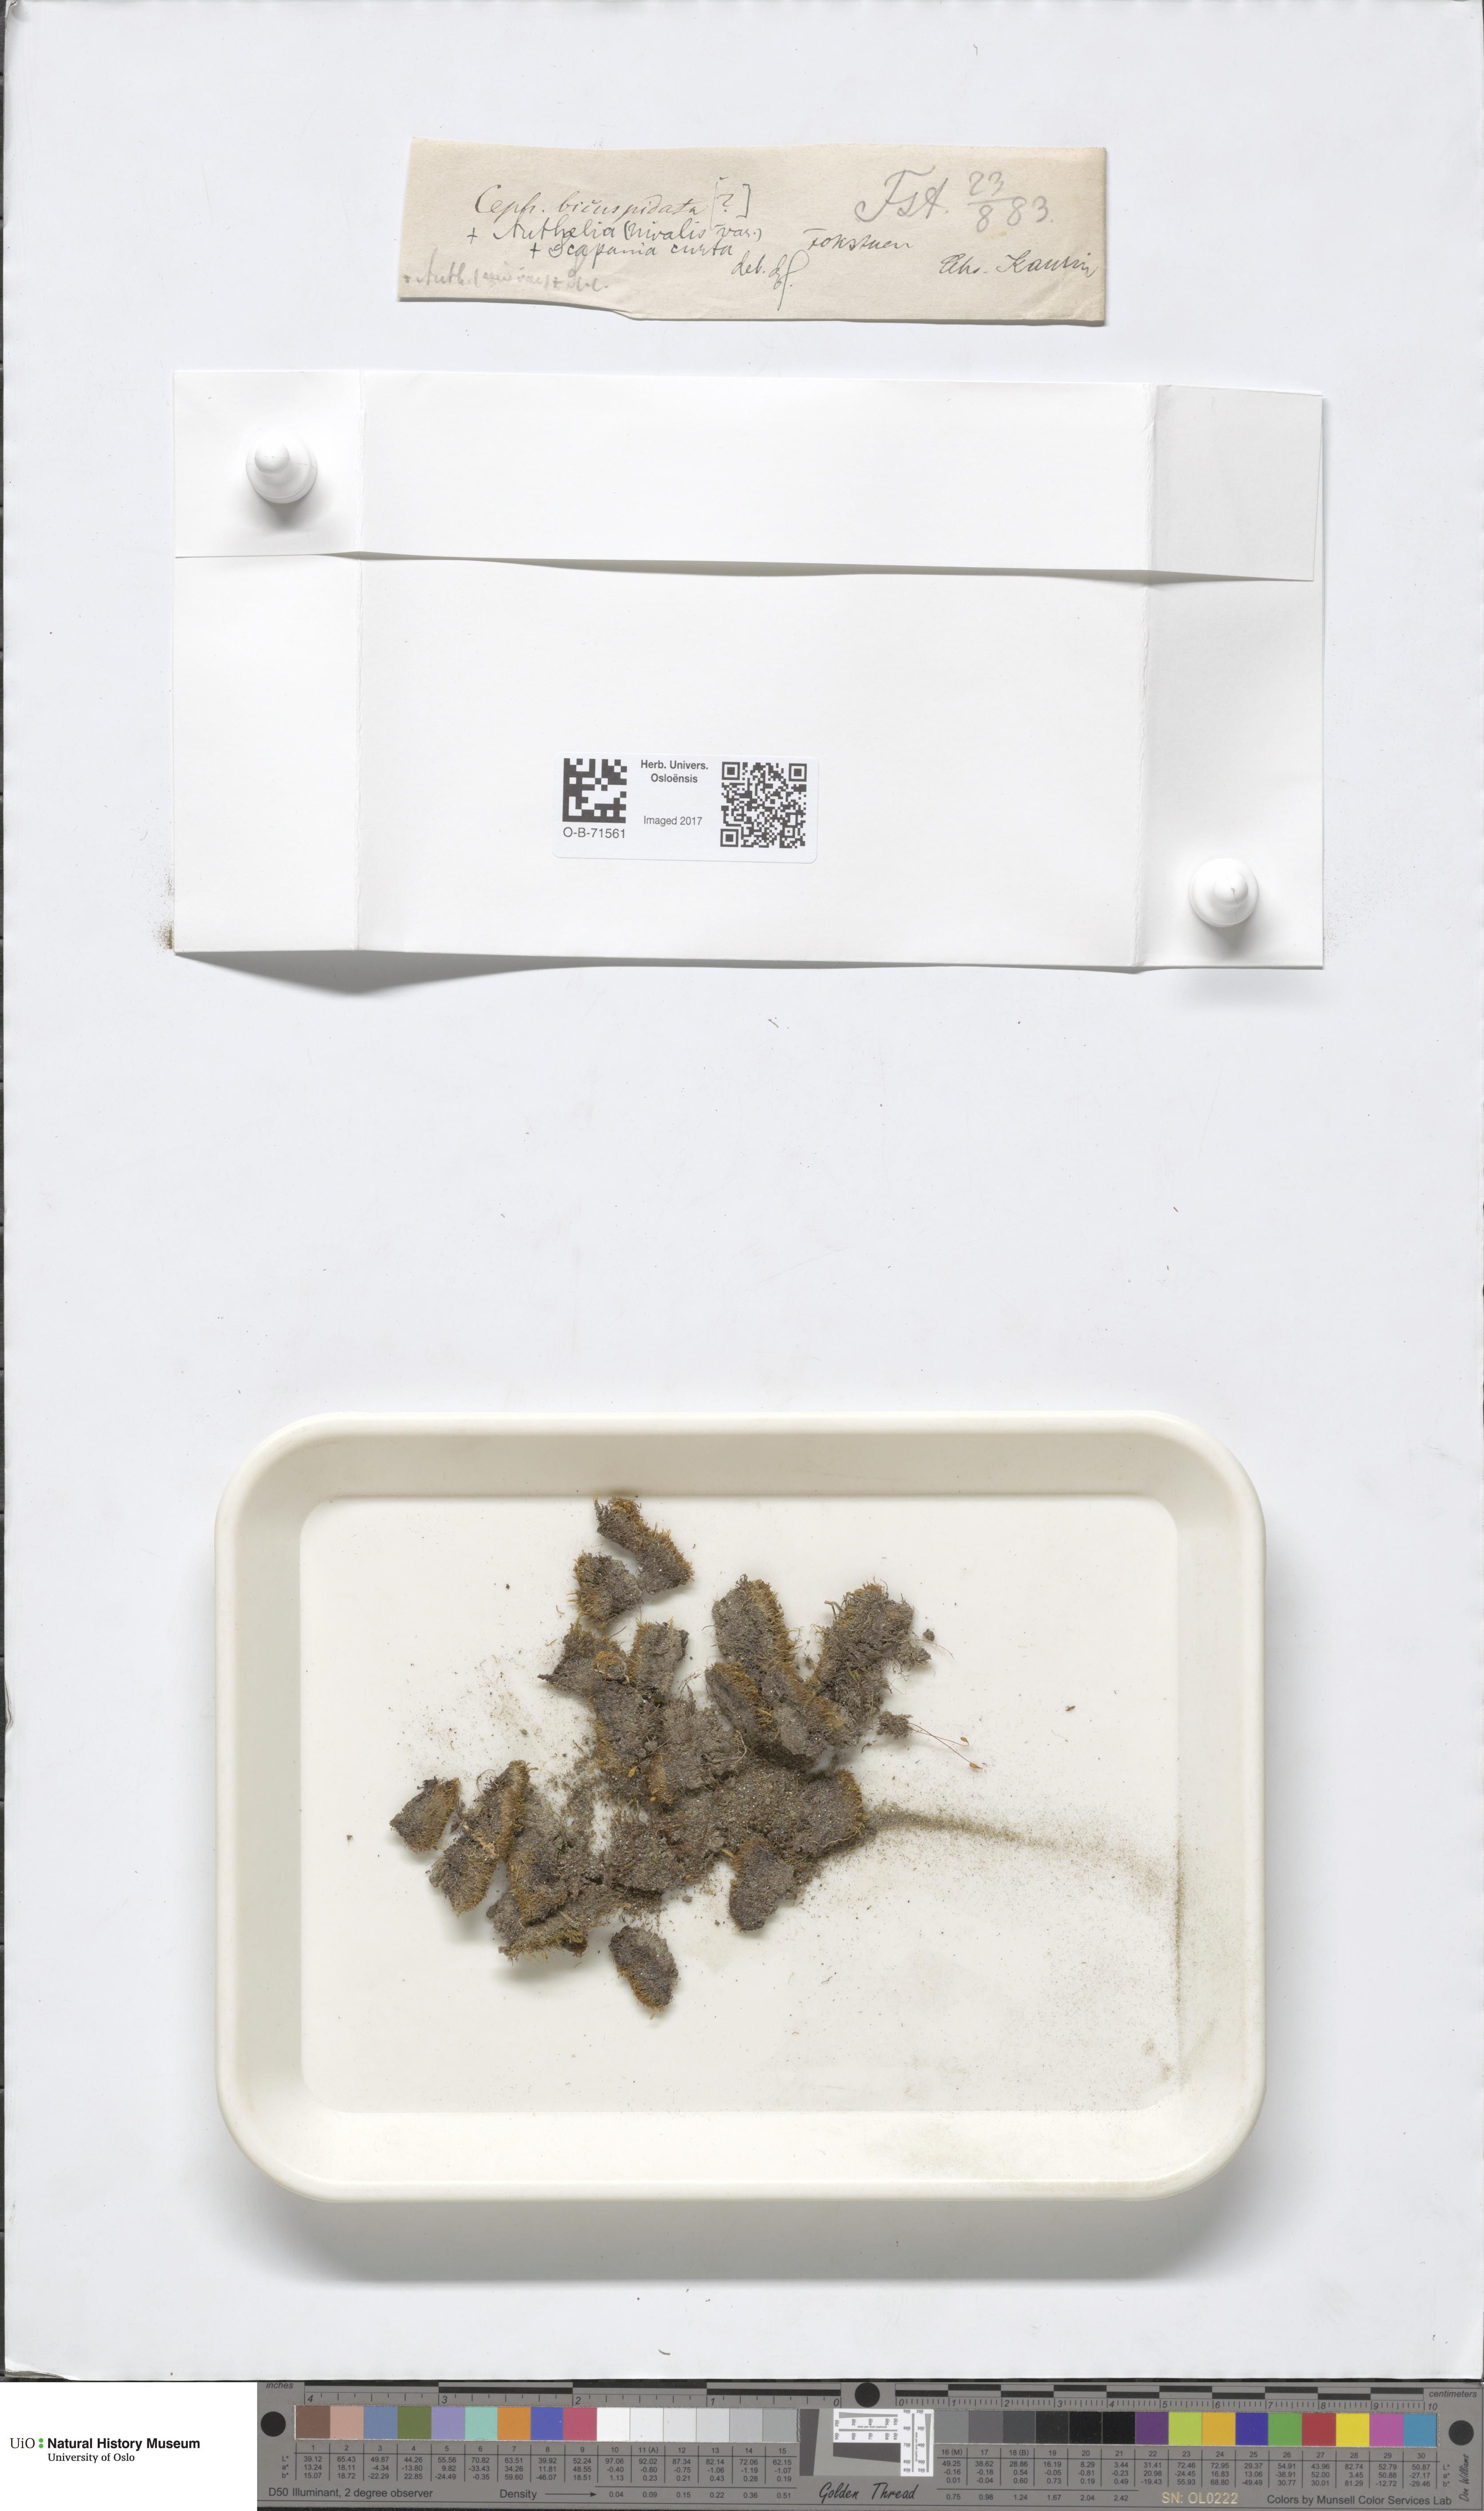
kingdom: Plantae
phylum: Marchantiophyta
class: Jungermanniopsida
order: Jungermanniales
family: Cephaloziaceae
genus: Cephalozia
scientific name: Cephalozia bicuspidata
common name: Two-horned pincerwort
